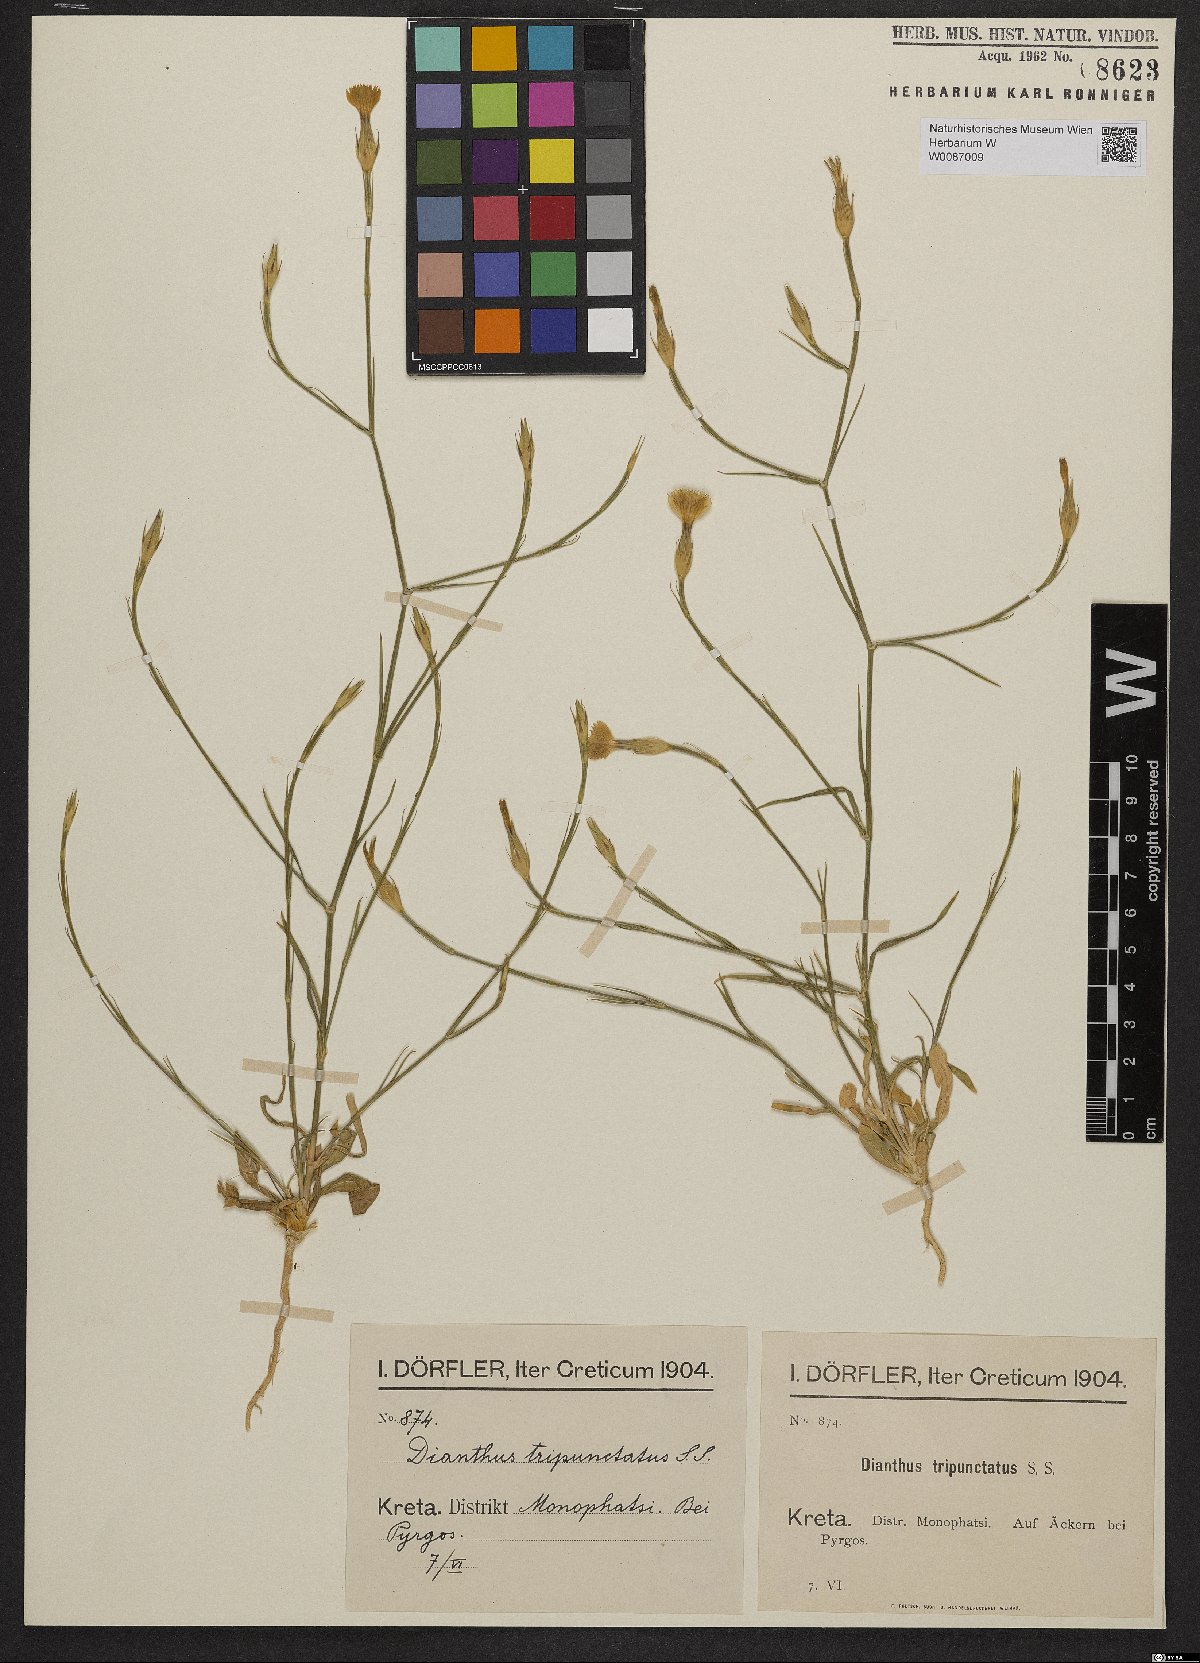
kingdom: Plantae
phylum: Tracheophyta
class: Magnoliopsida
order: Caryophyllales
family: Caryophyllaceae
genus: Dianthus
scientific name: Dianthus tripunctatus
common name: Three-spotted pink
